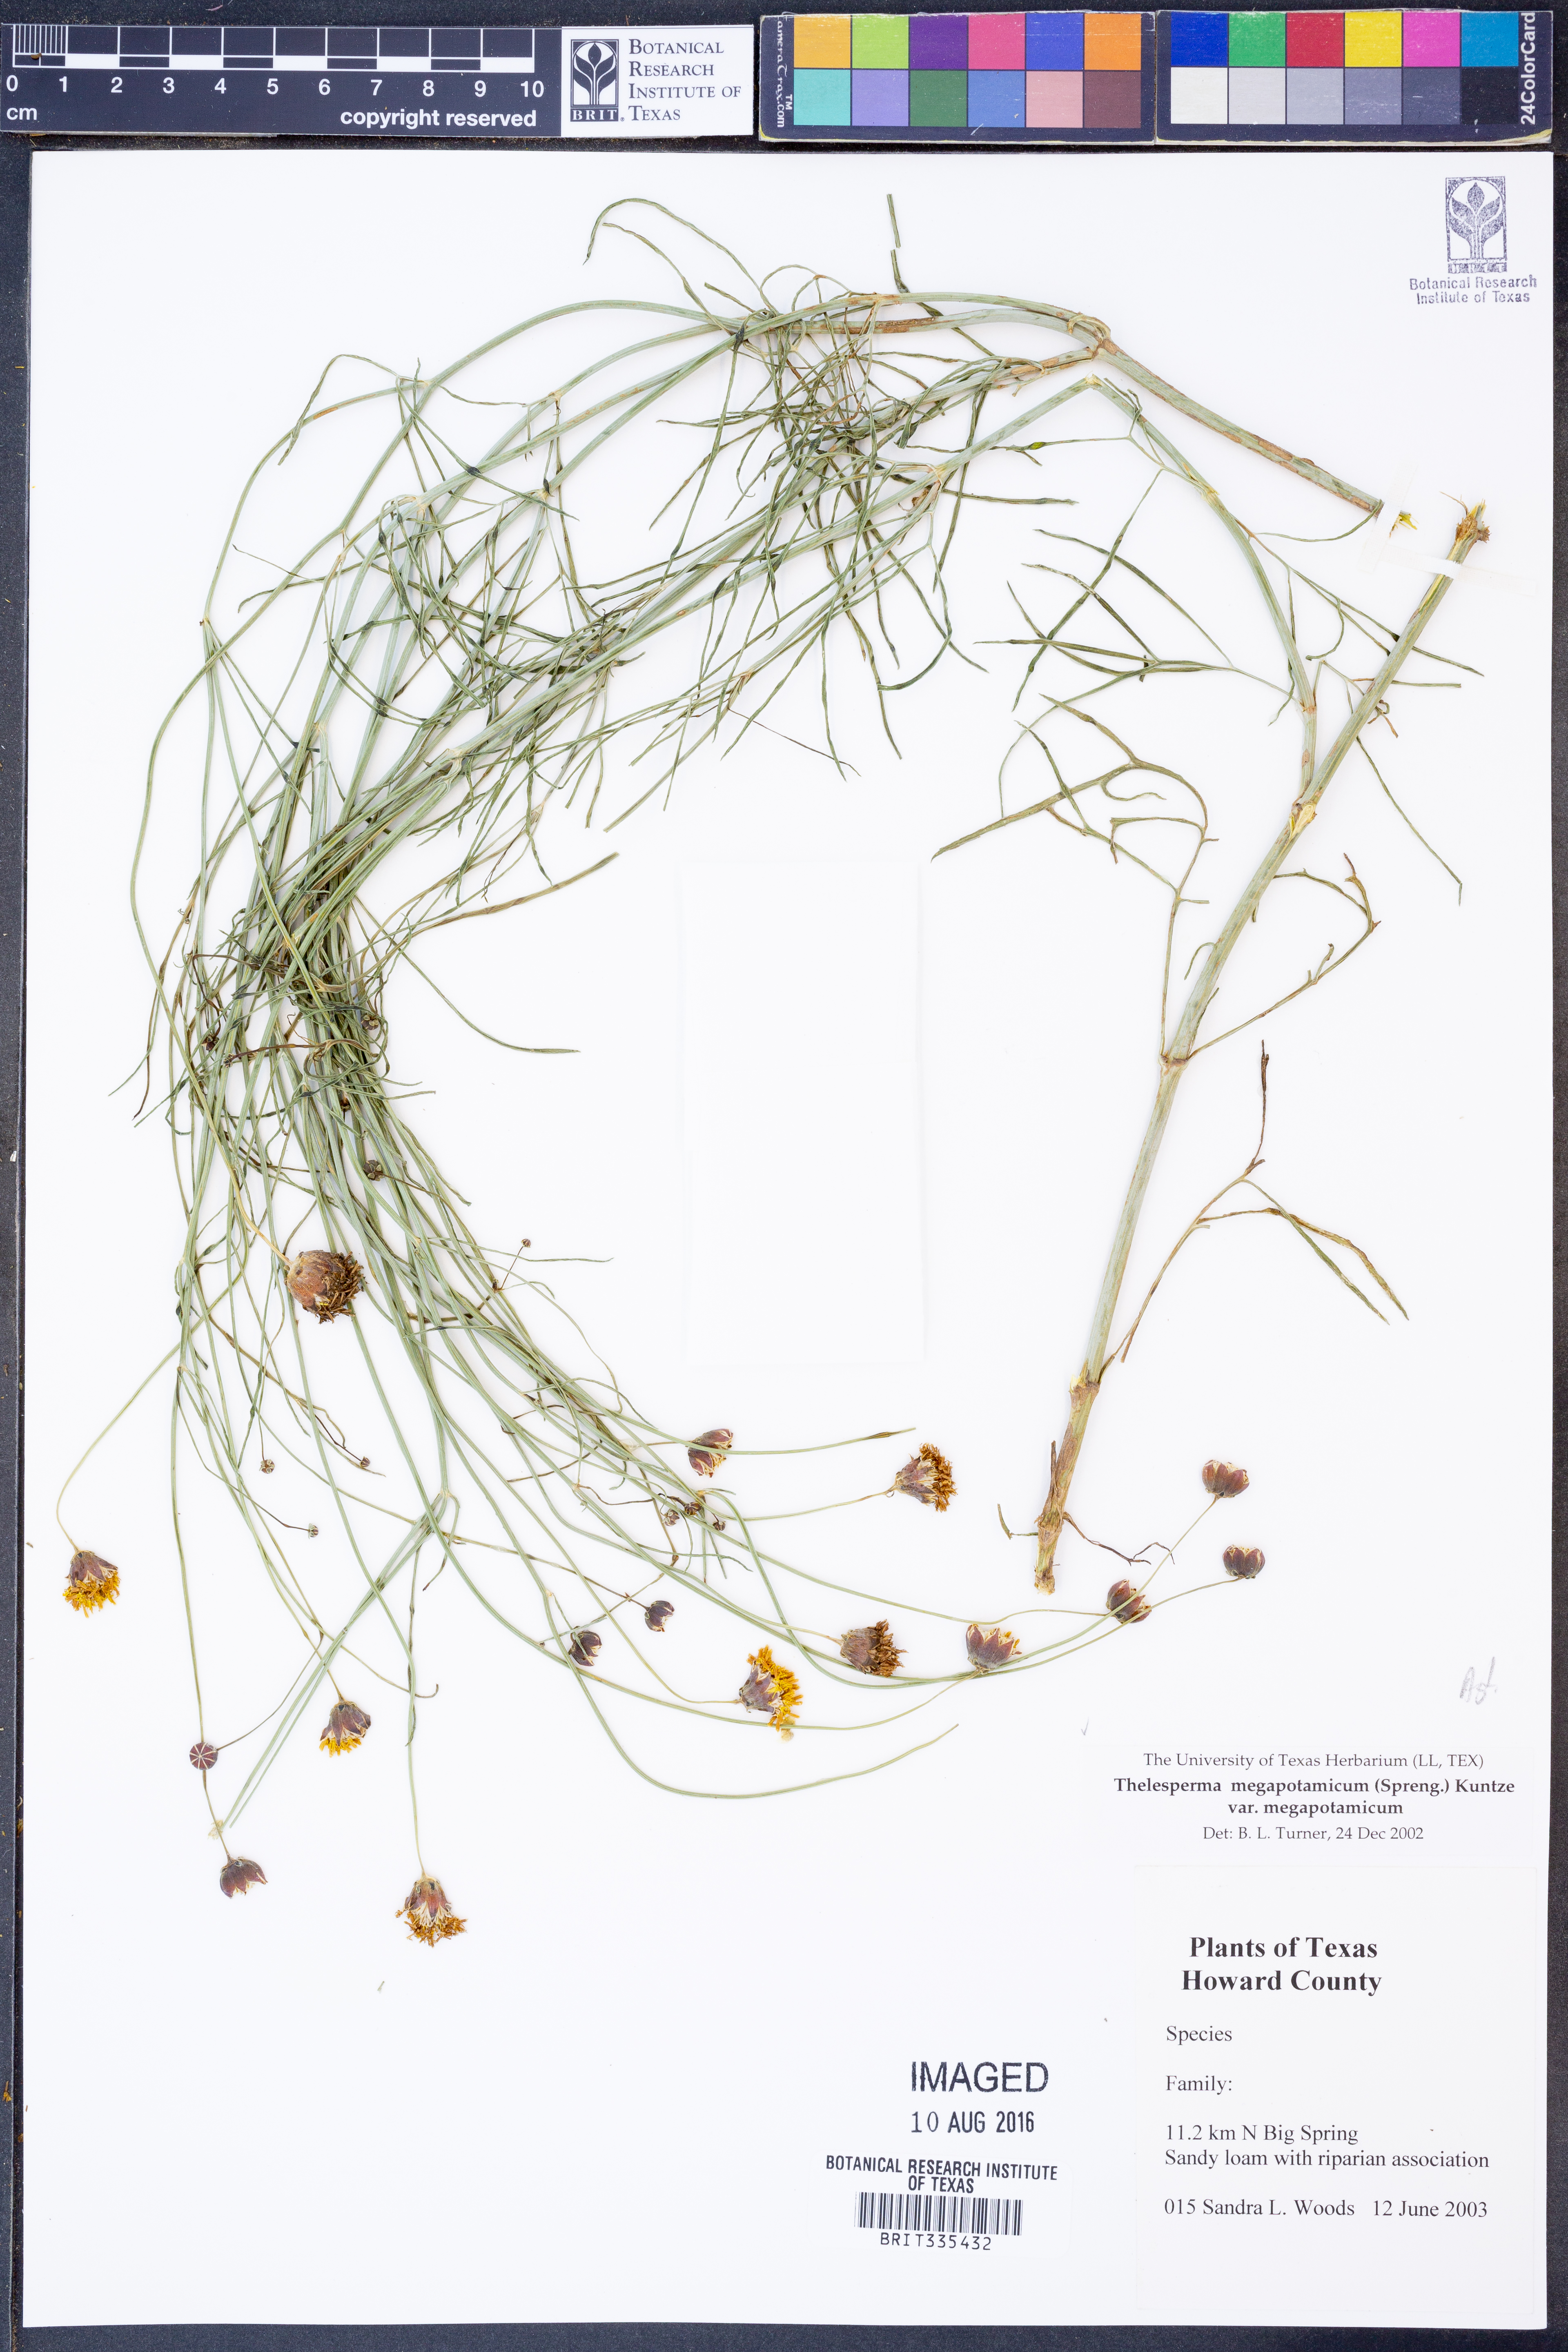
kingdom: Plantae
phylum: Tracheophyta
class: Magnoliopsida
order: Asterales
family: Asteraceae
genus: Thelesperma
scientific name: Thelesperma megapotamicum
